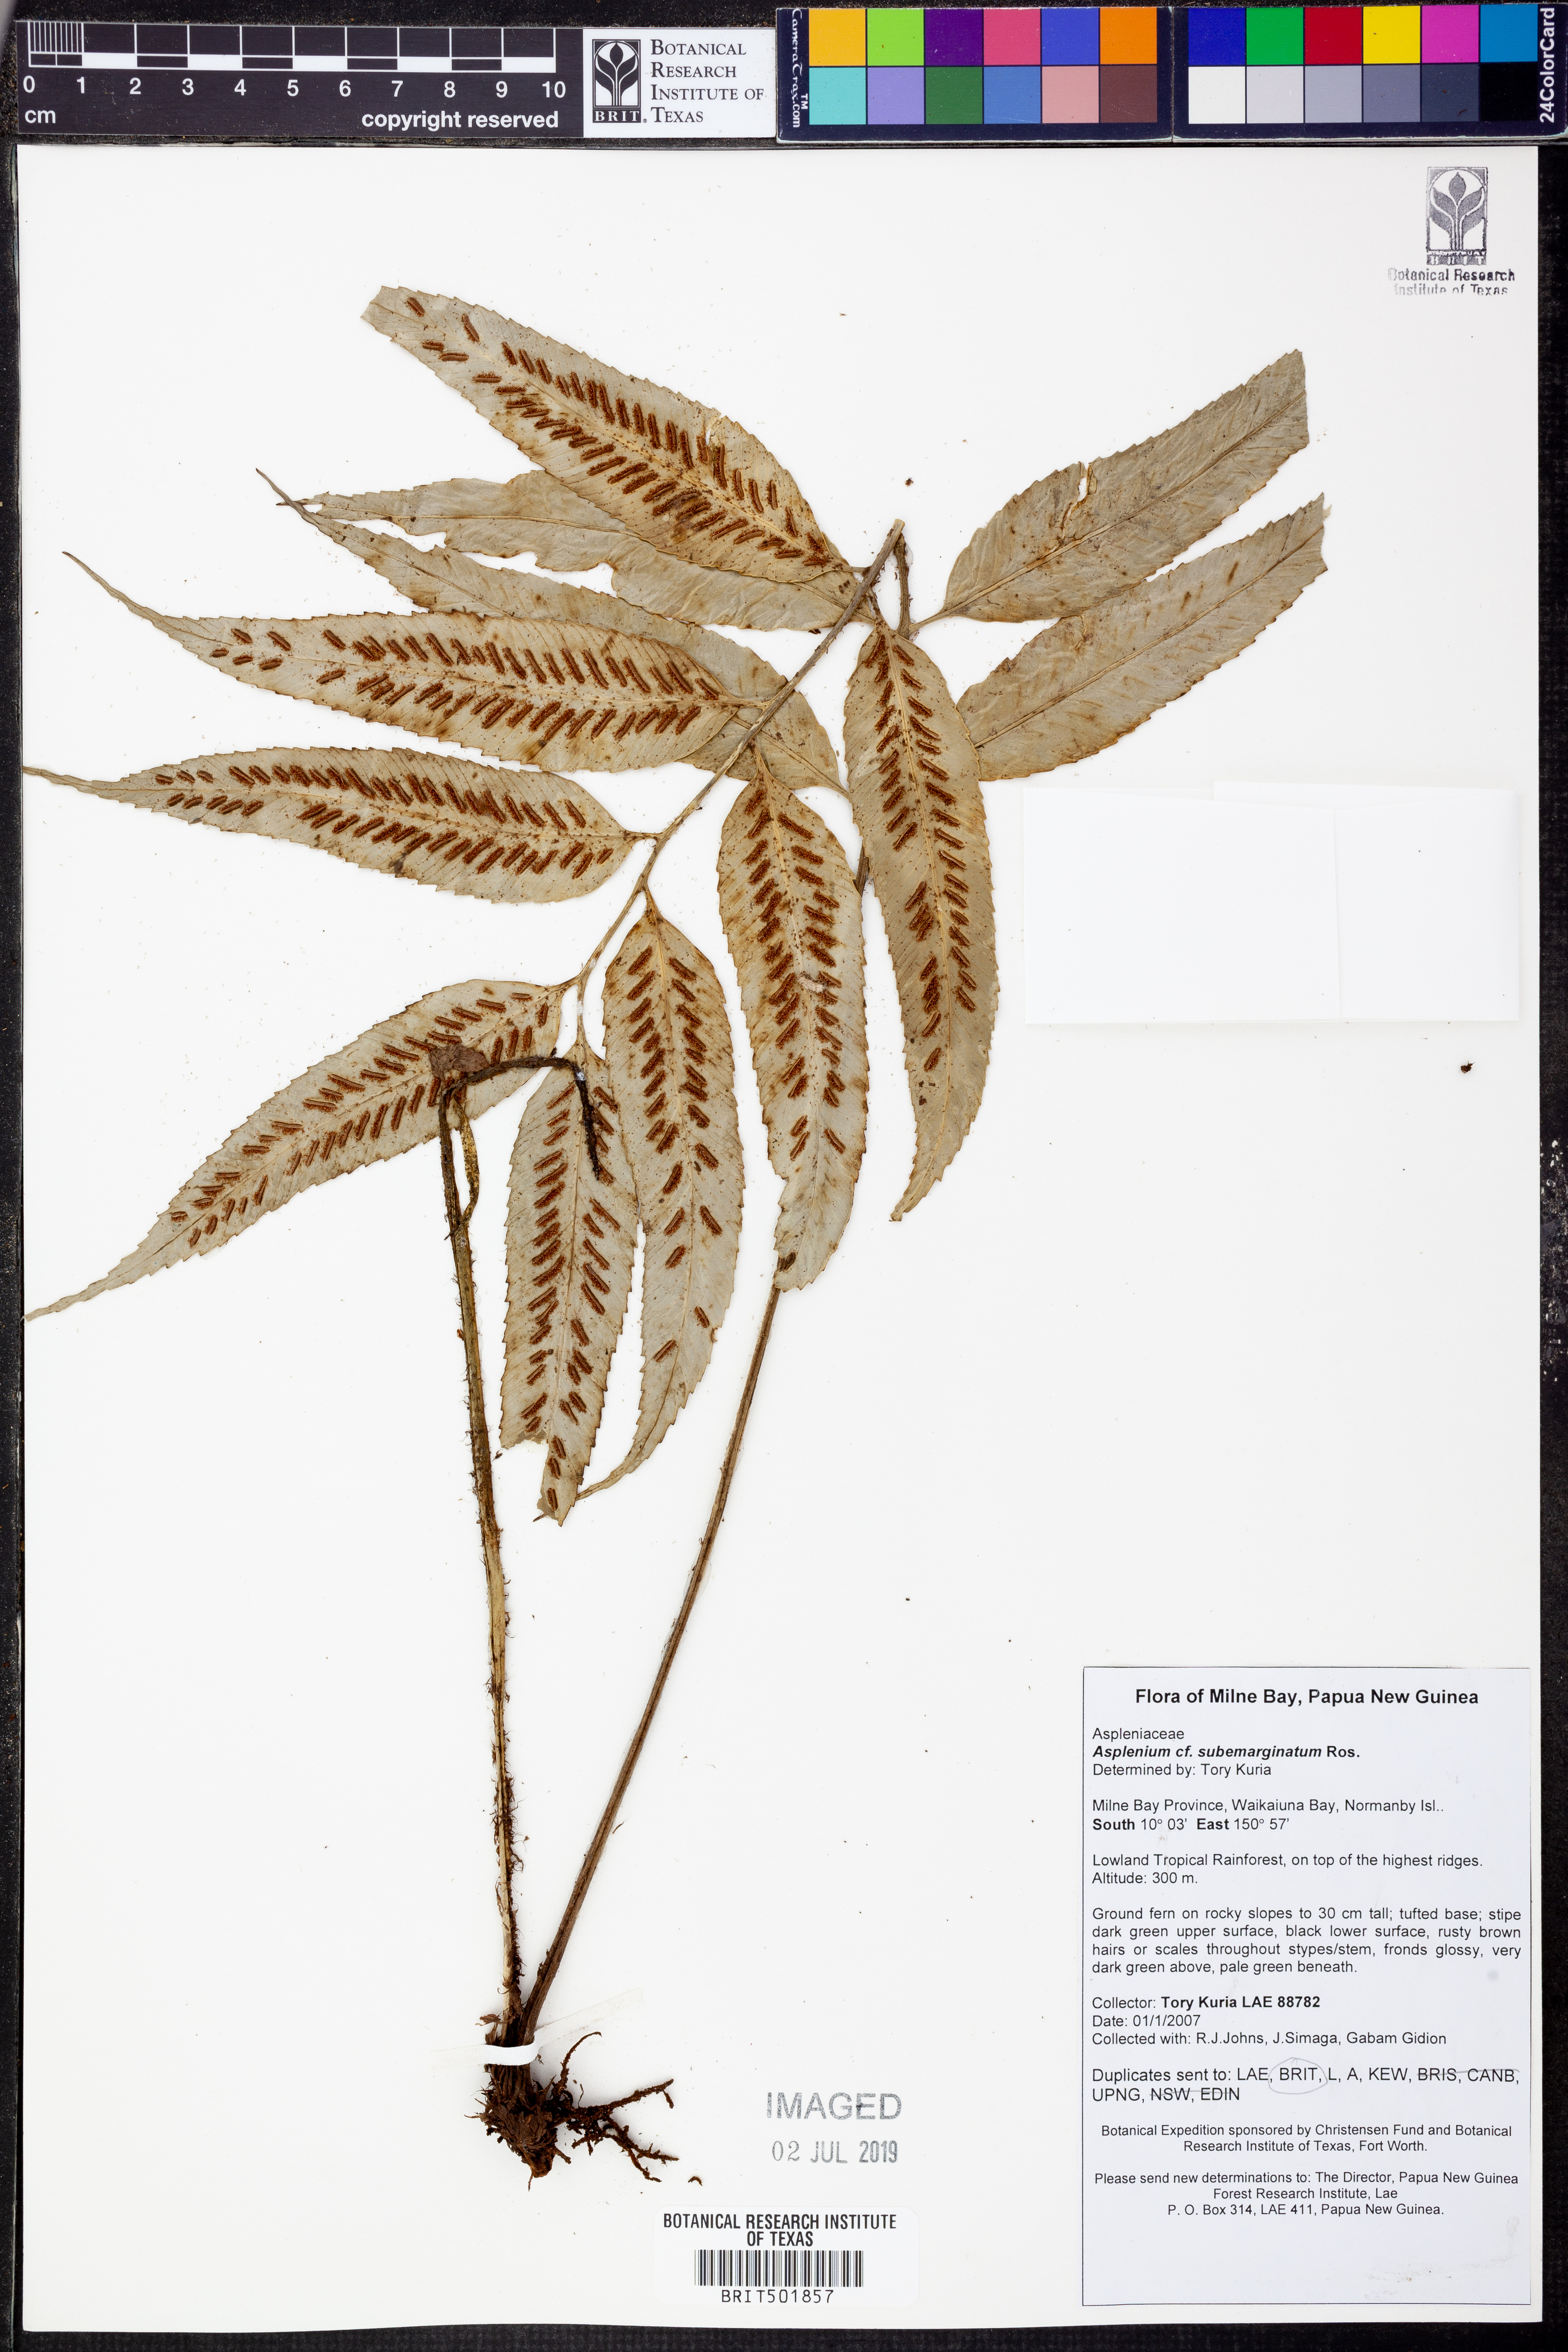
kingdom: Plantae
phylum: Tracheophyta
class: Polypodiopsida
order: Polypodiales
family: Aspleniaceae
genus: Asplenium
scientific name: Asplenium subemarginatum
